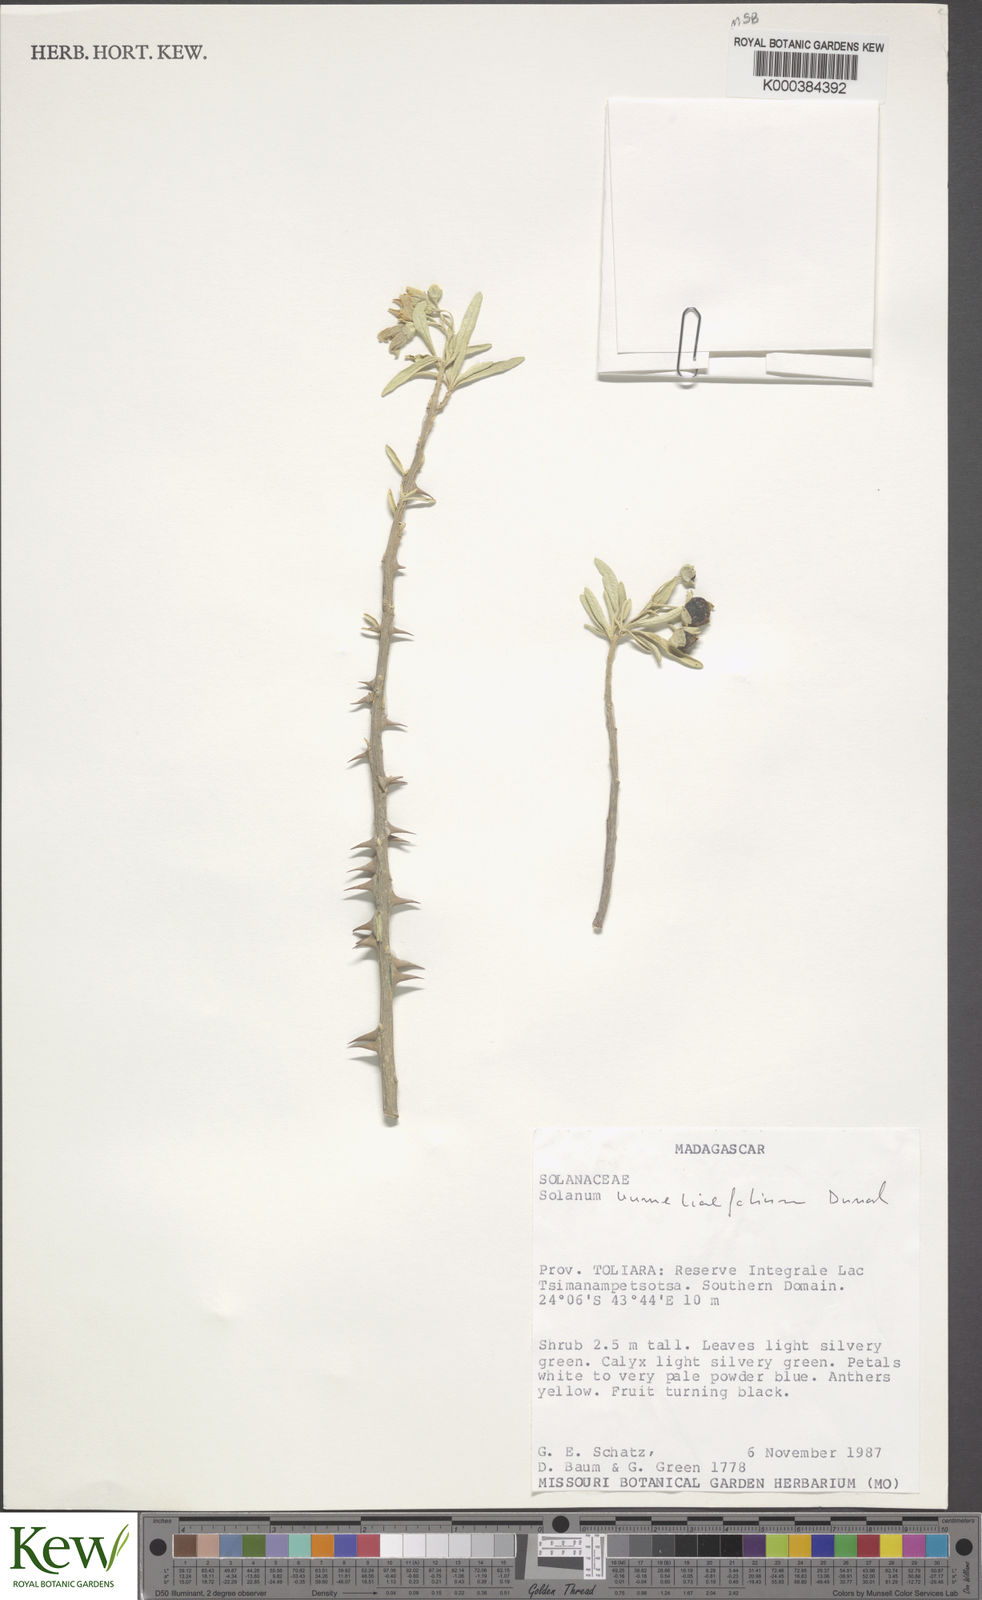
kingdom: Plantae
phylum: Tracheophyta
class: Magnoliopsida
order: Solanales
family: Solanaceae
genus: Solanum
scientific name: Solanum bumeliifolium
